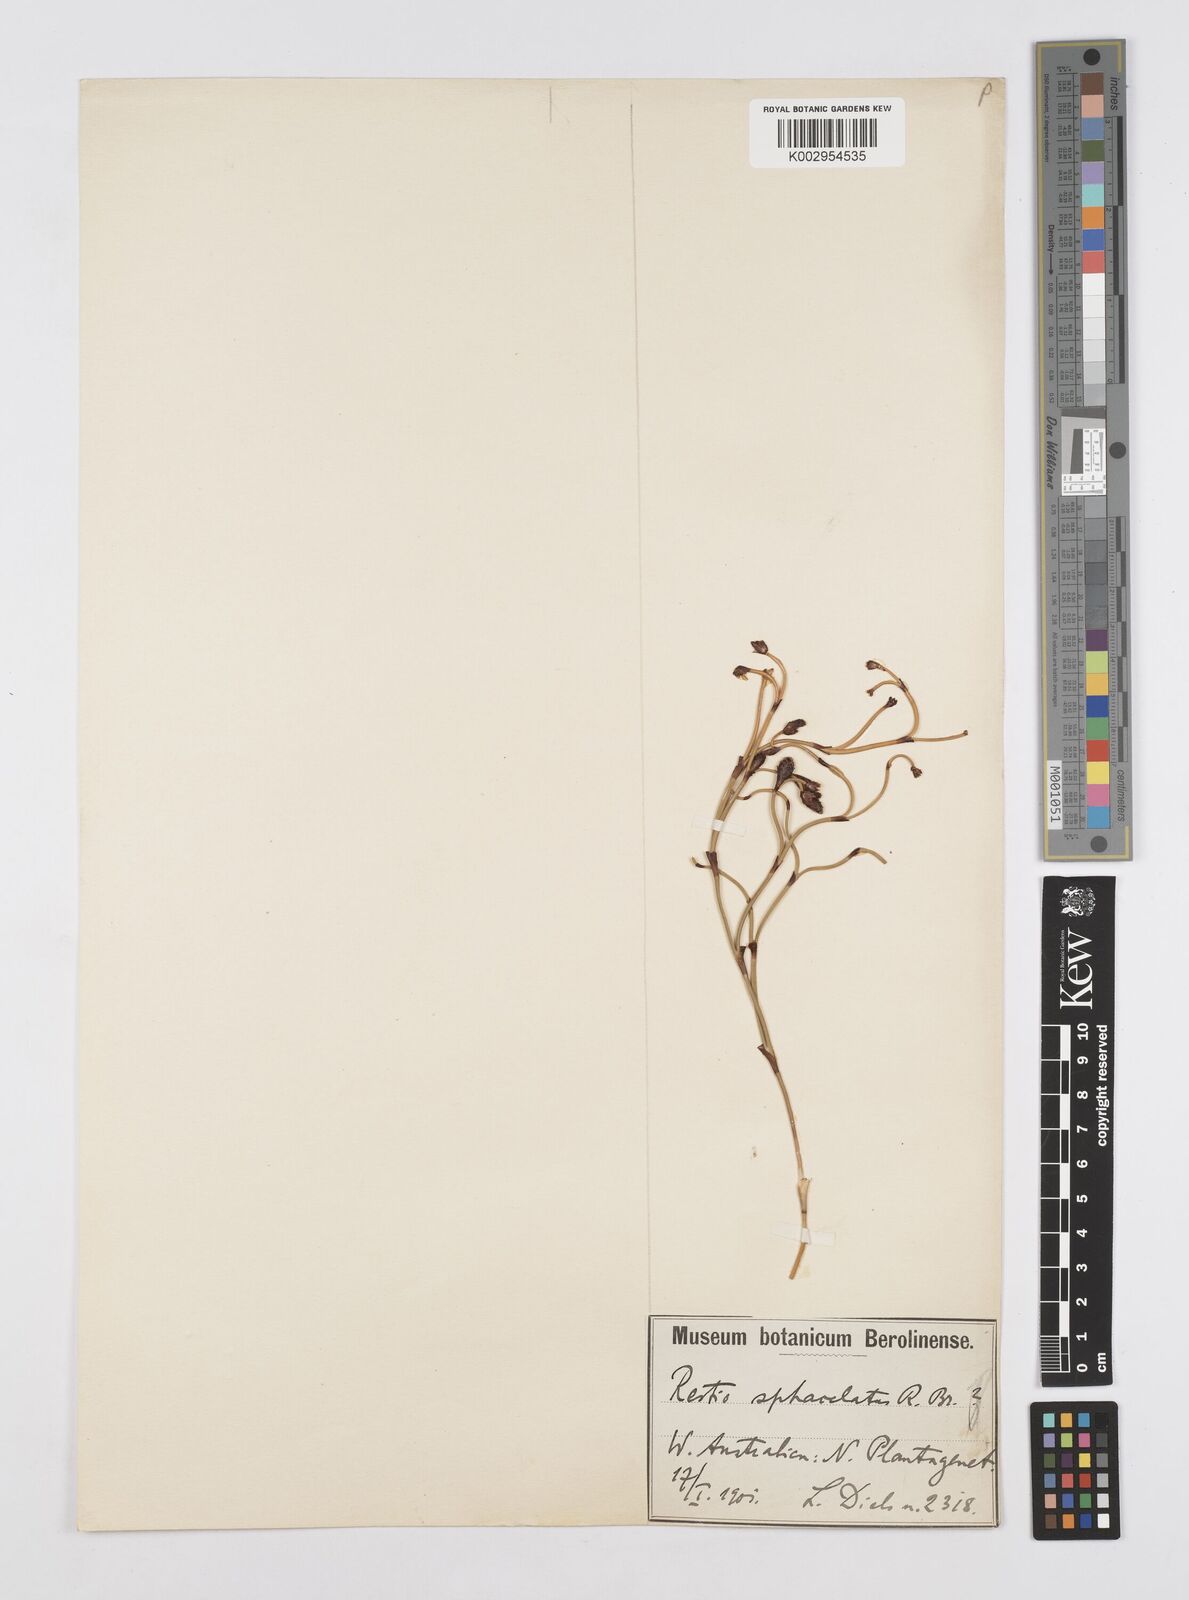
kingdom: Plantae
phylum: Tracheophyta
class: Liliopsida
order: Poales
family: Restionaceae
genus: Chordifex
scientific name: Chordifex sphacelatus
